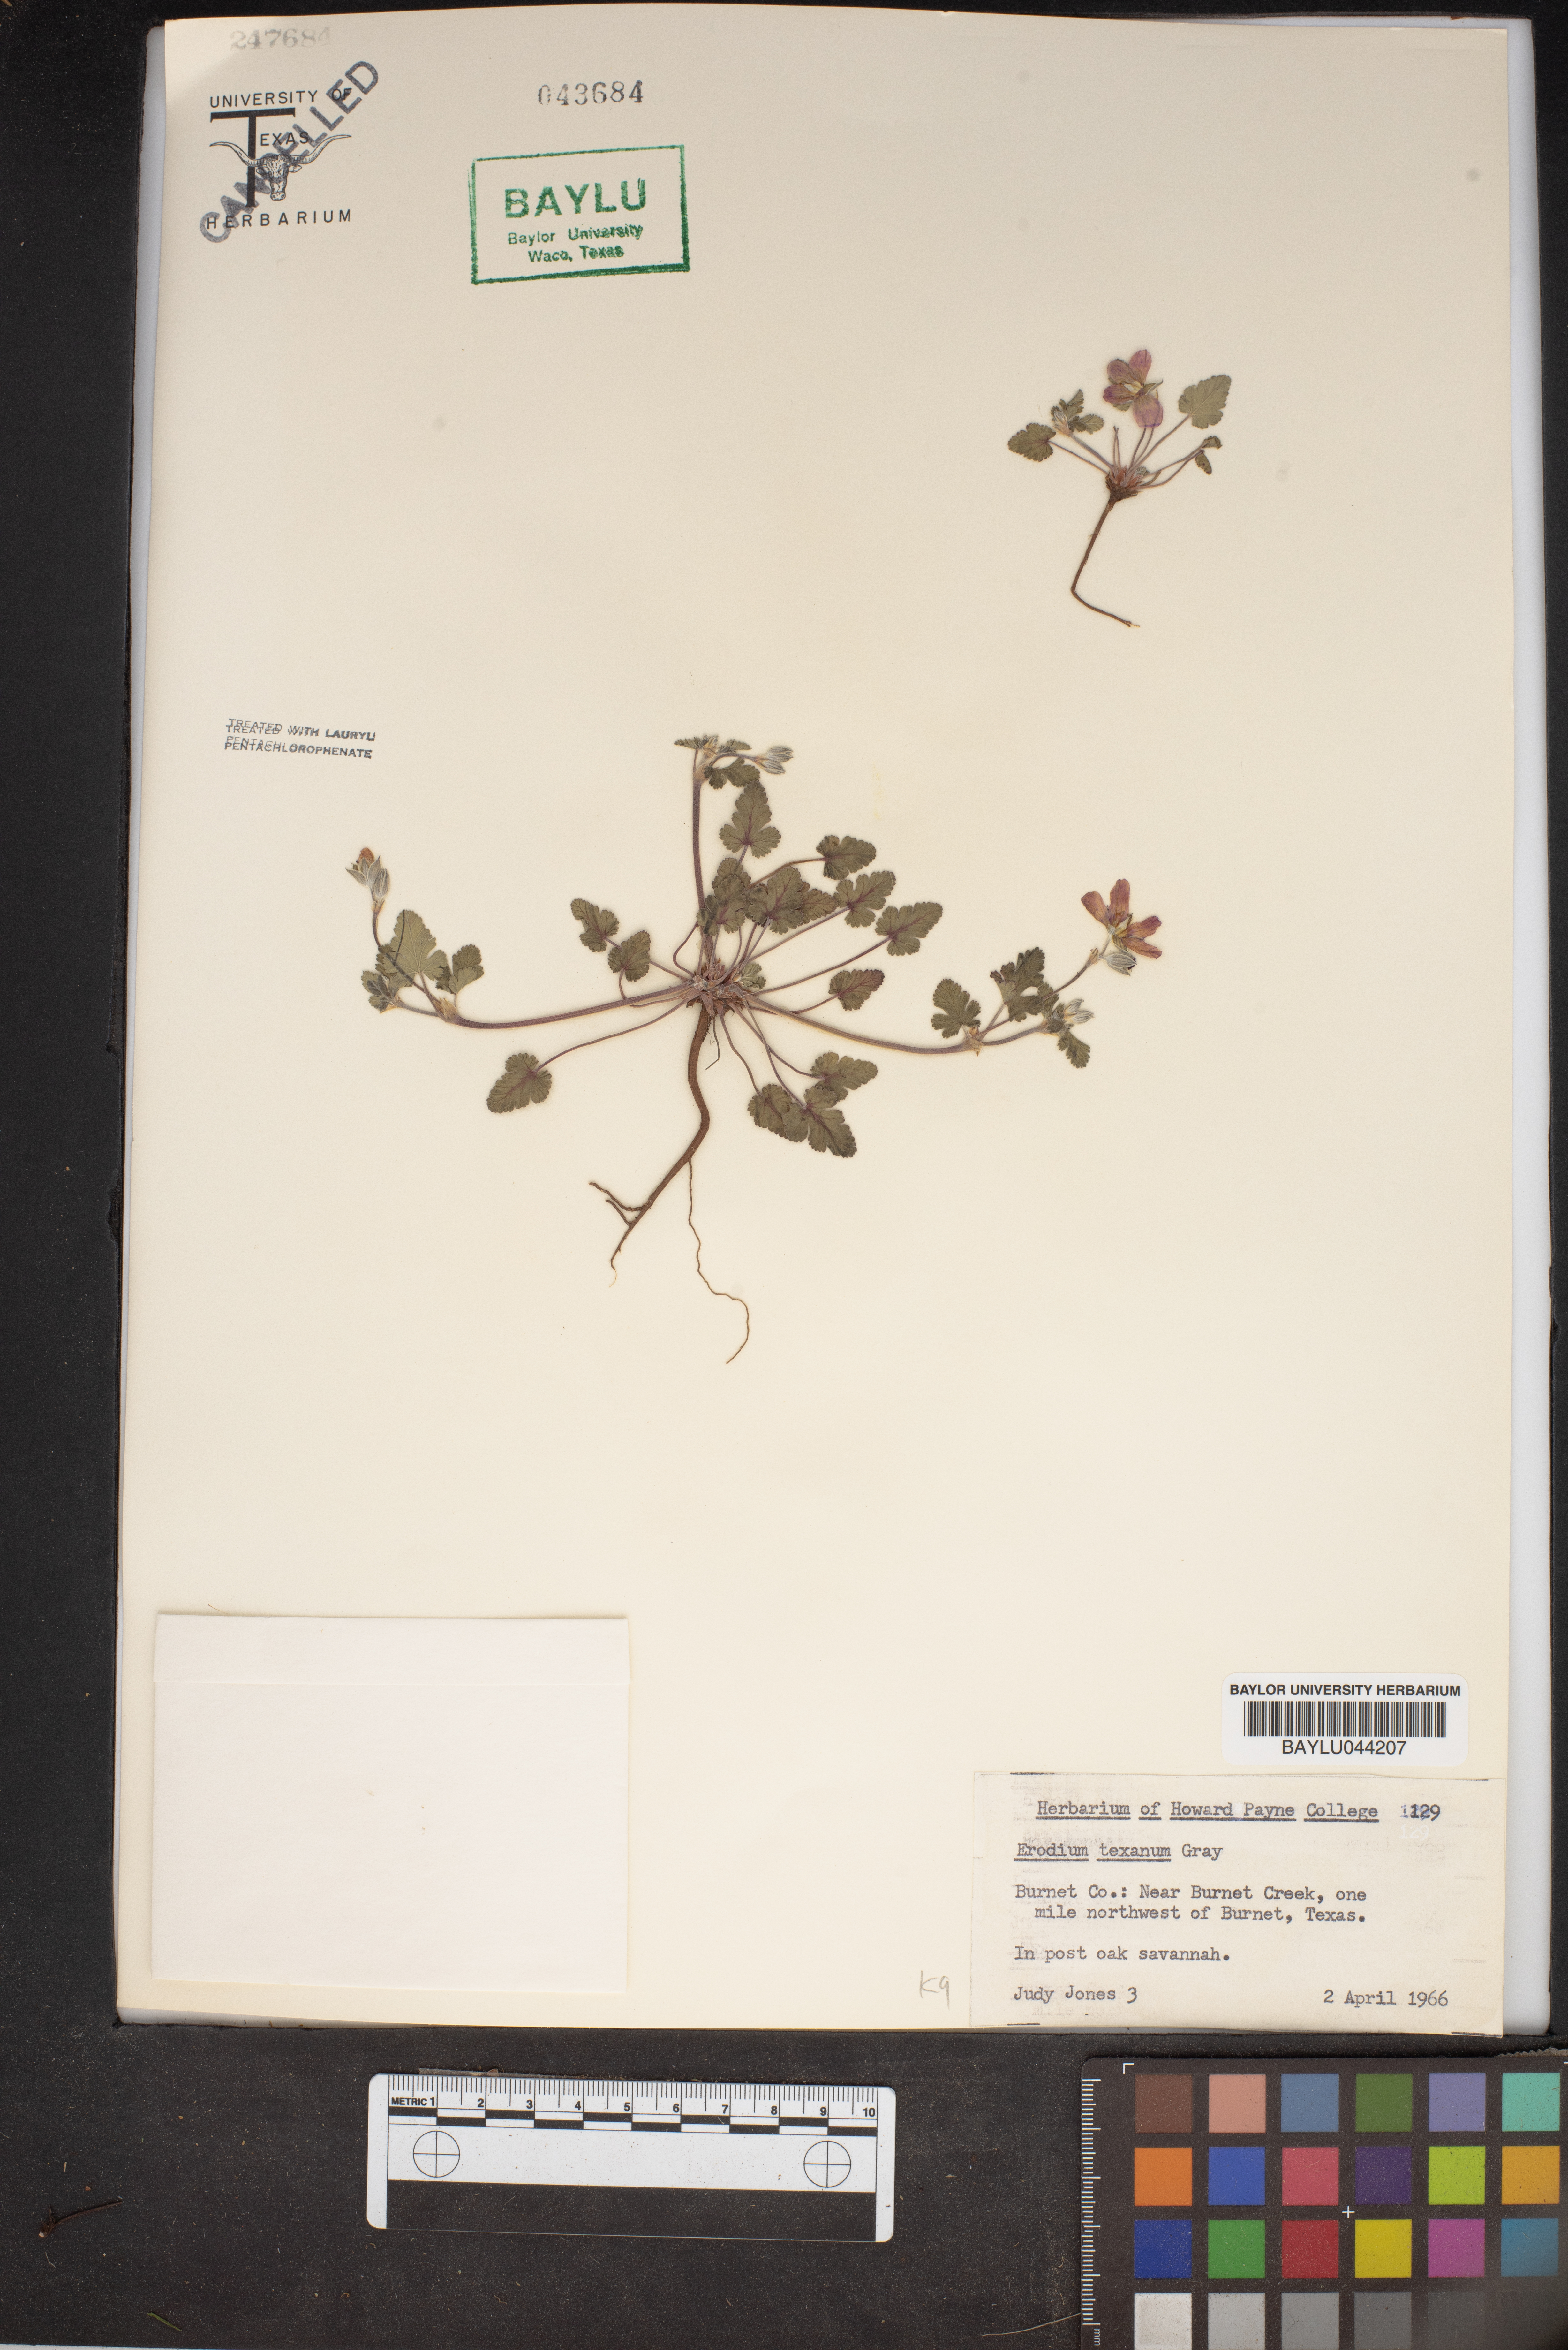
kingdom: Plantae
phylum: Tracheophyta
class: Magnoliopsida
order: Geraniales
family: Geraniaceae
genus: Erodium
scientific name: Erodium texanum
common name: Texas stork's-bill
